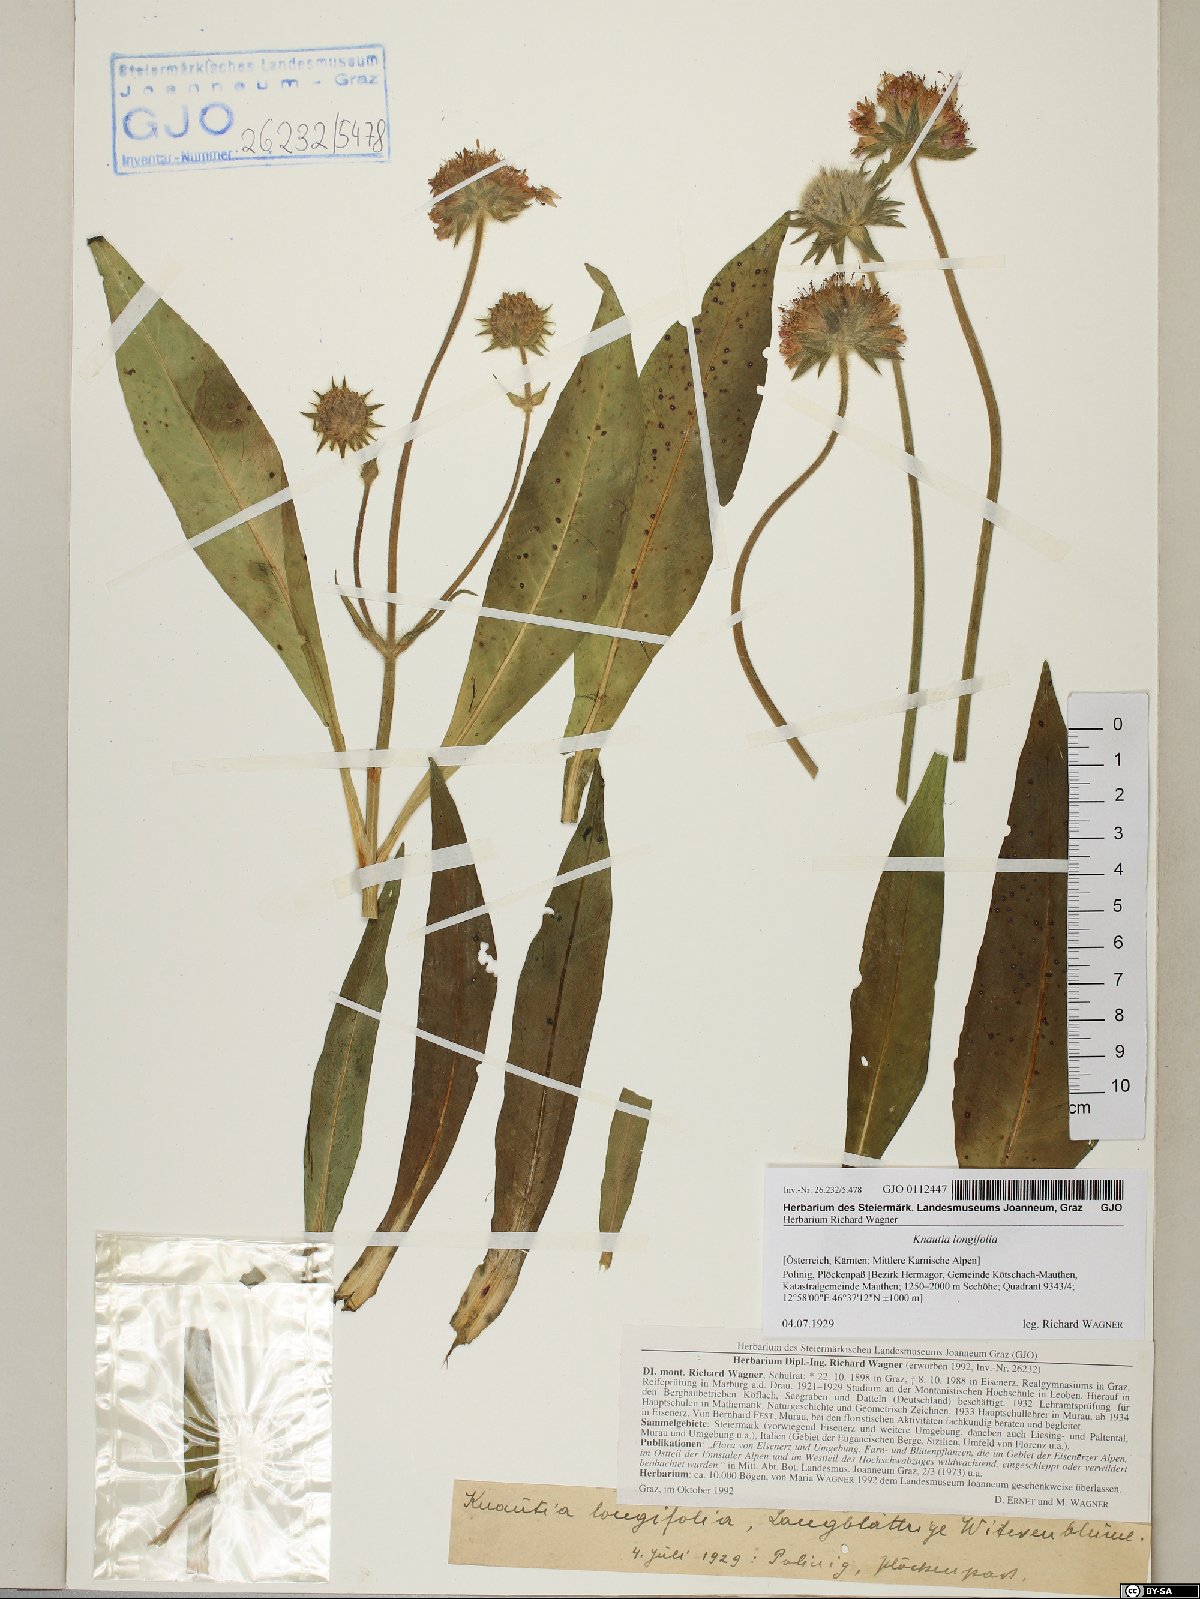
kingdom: Plantae
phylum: Tracheophyta
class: Magnoliopsida
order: Dipsacales
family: Caprifoliaceae
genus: Knautia
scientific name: Knautia longifolia
